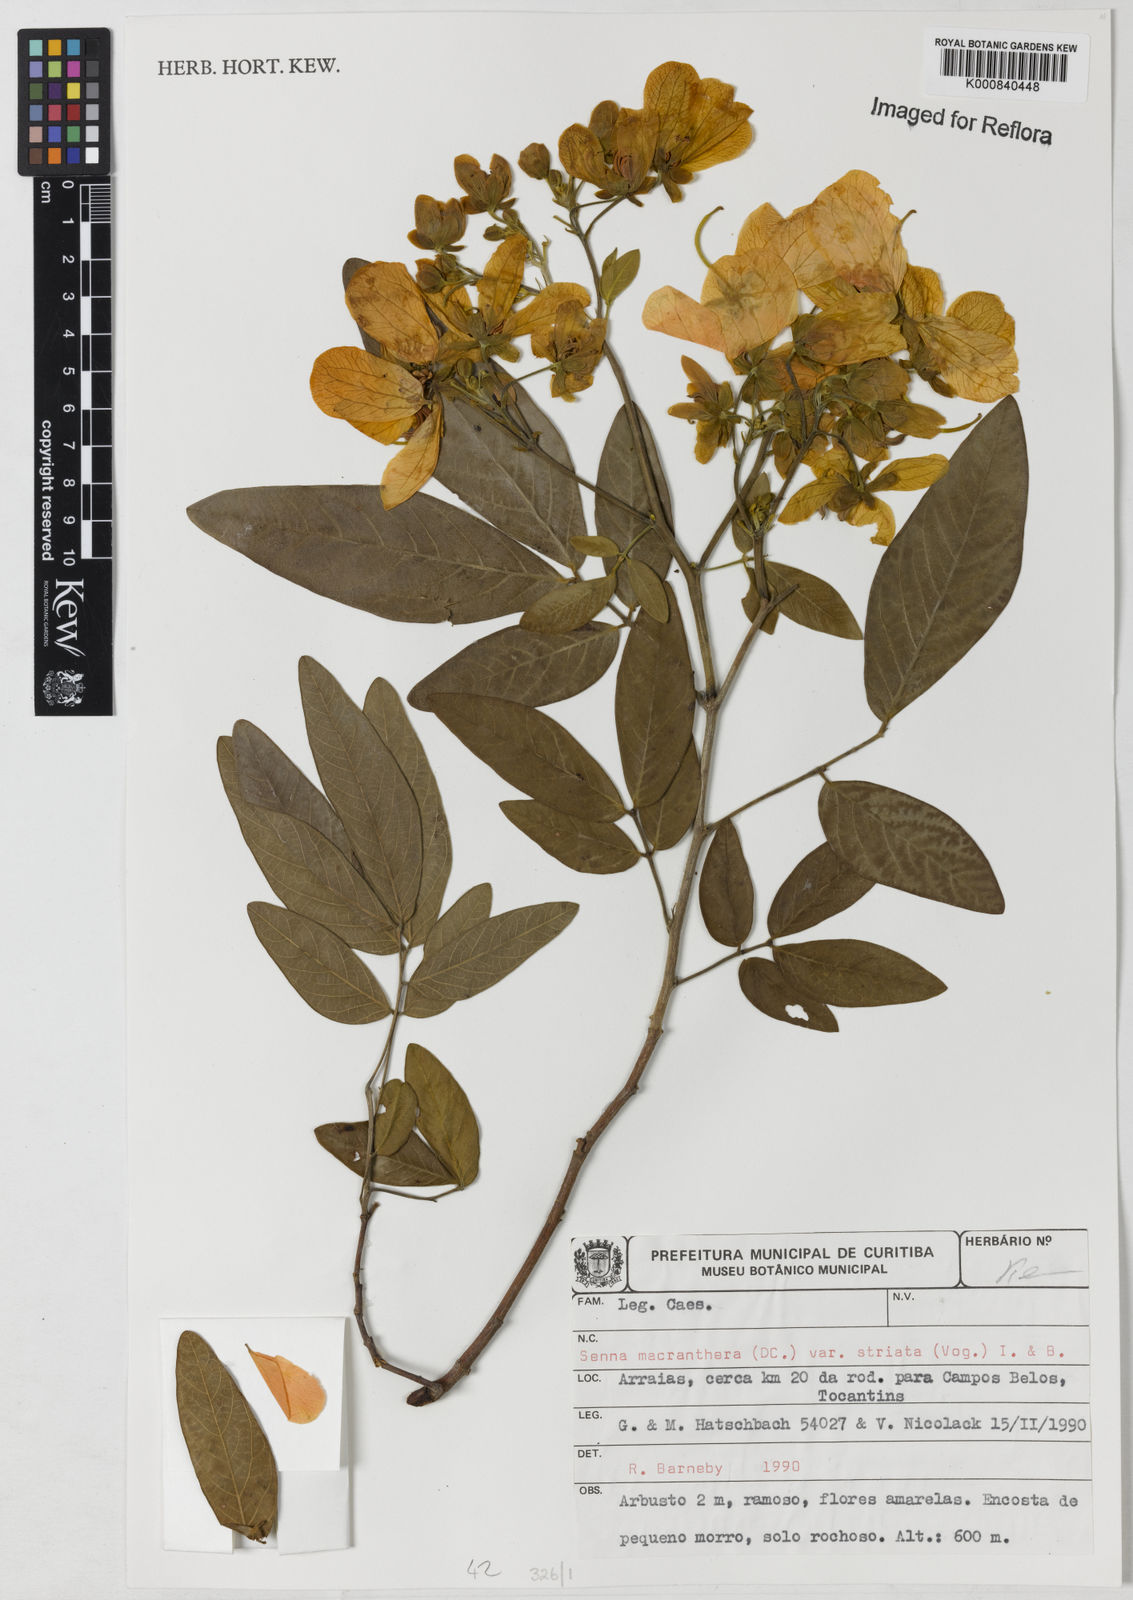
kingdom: Plantae
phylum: Tracheophyta
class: Magnoliopsida
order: Fabales
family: Fabaceae
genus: Senna
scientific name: Senna macranthera
